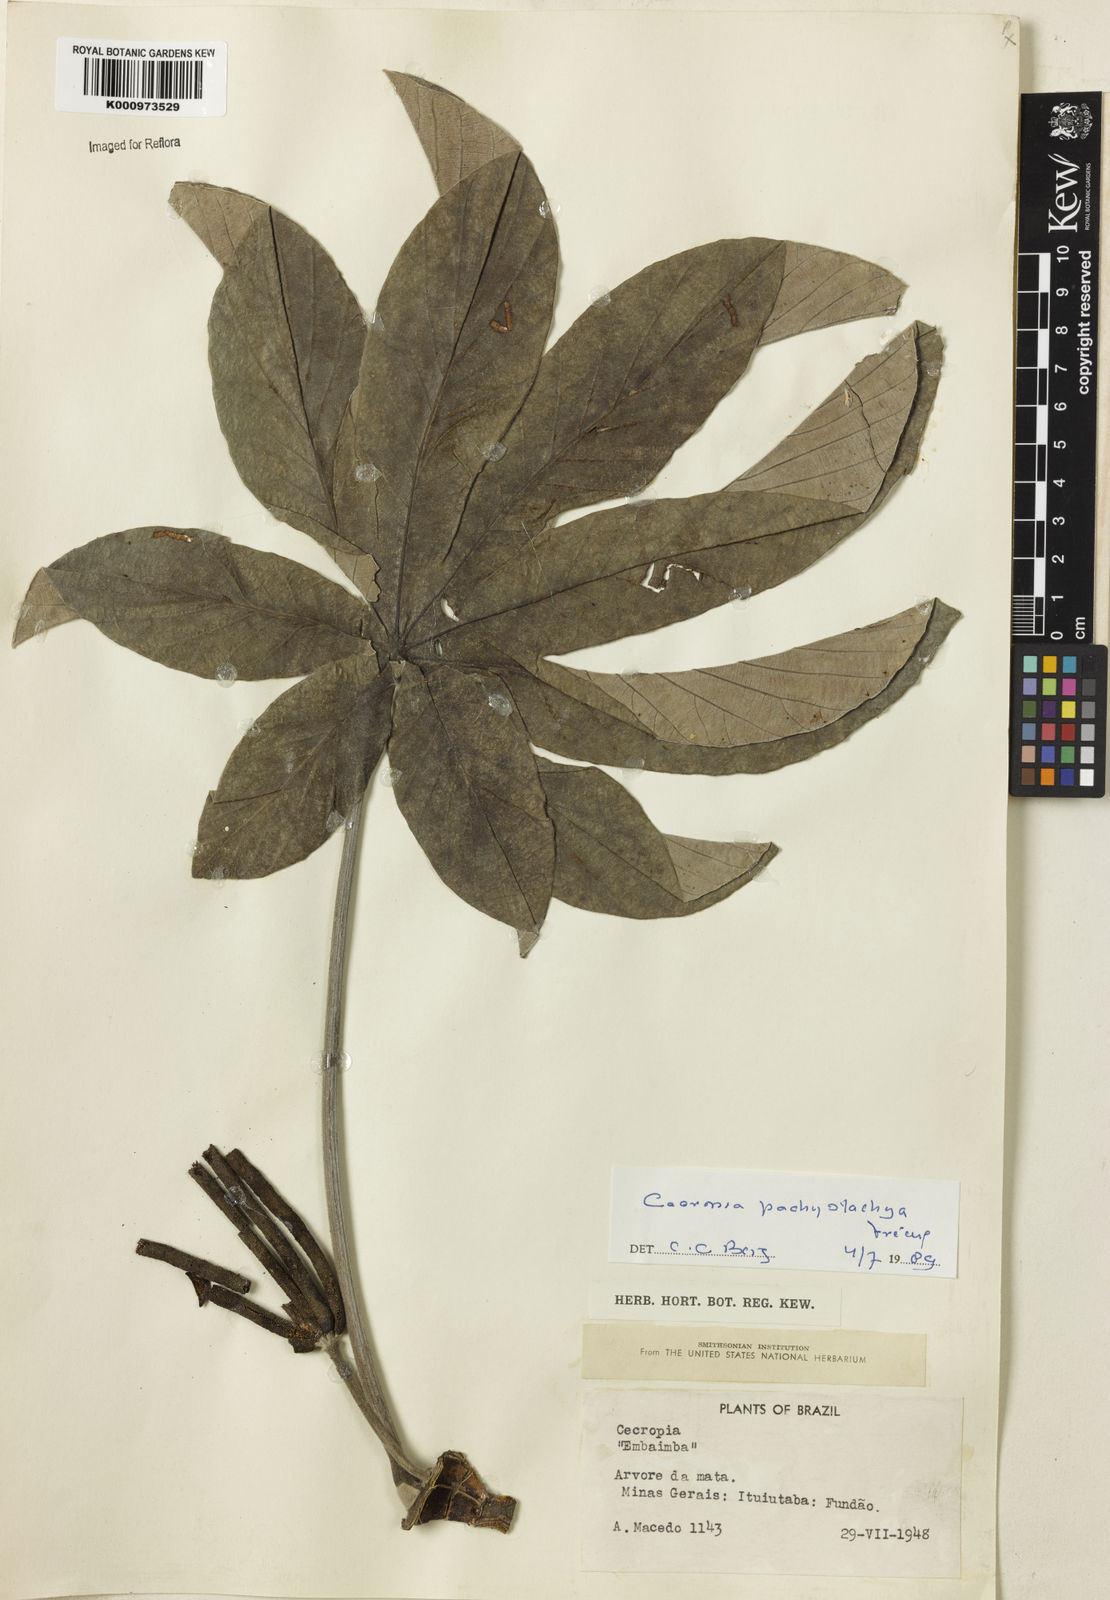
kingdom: Plantae
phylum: Tracheophyta
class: Magnoliopsida
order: Rosales
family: Urticaceae
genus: Cecropia
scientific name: Cecropia
